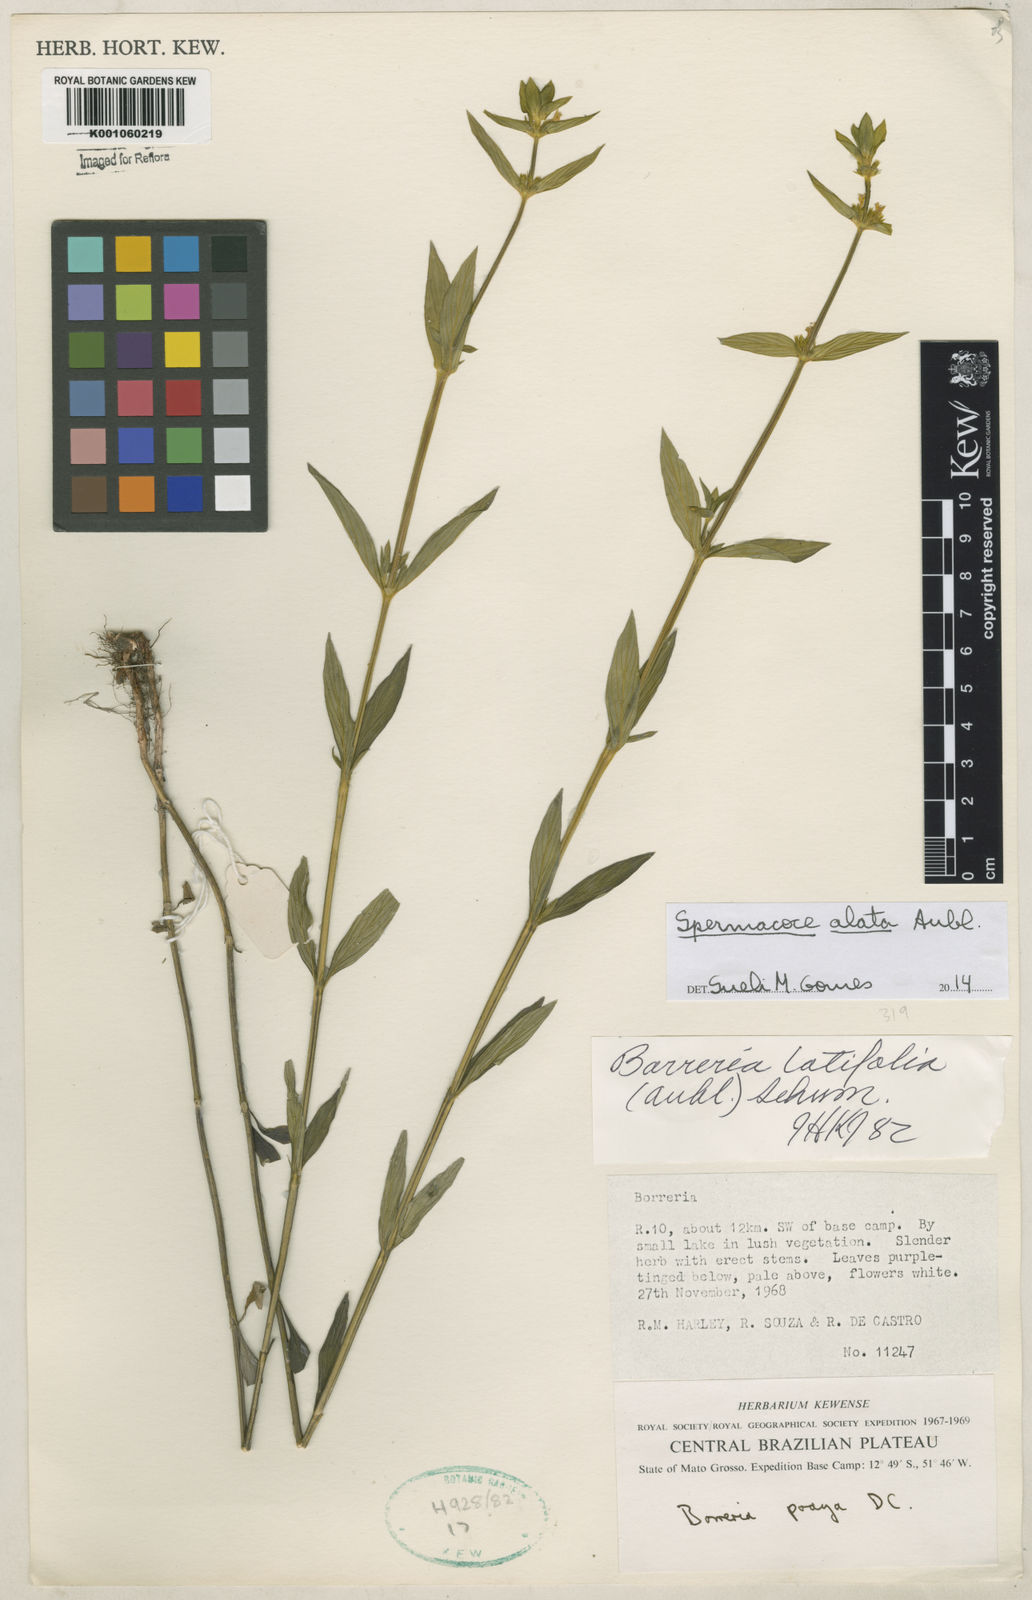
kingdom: Plantae
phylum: Tracheophyta
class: Magnoliopsida
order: Gentianales
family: Rubiaceae
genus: Spermacoce
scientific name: Spermacoce
